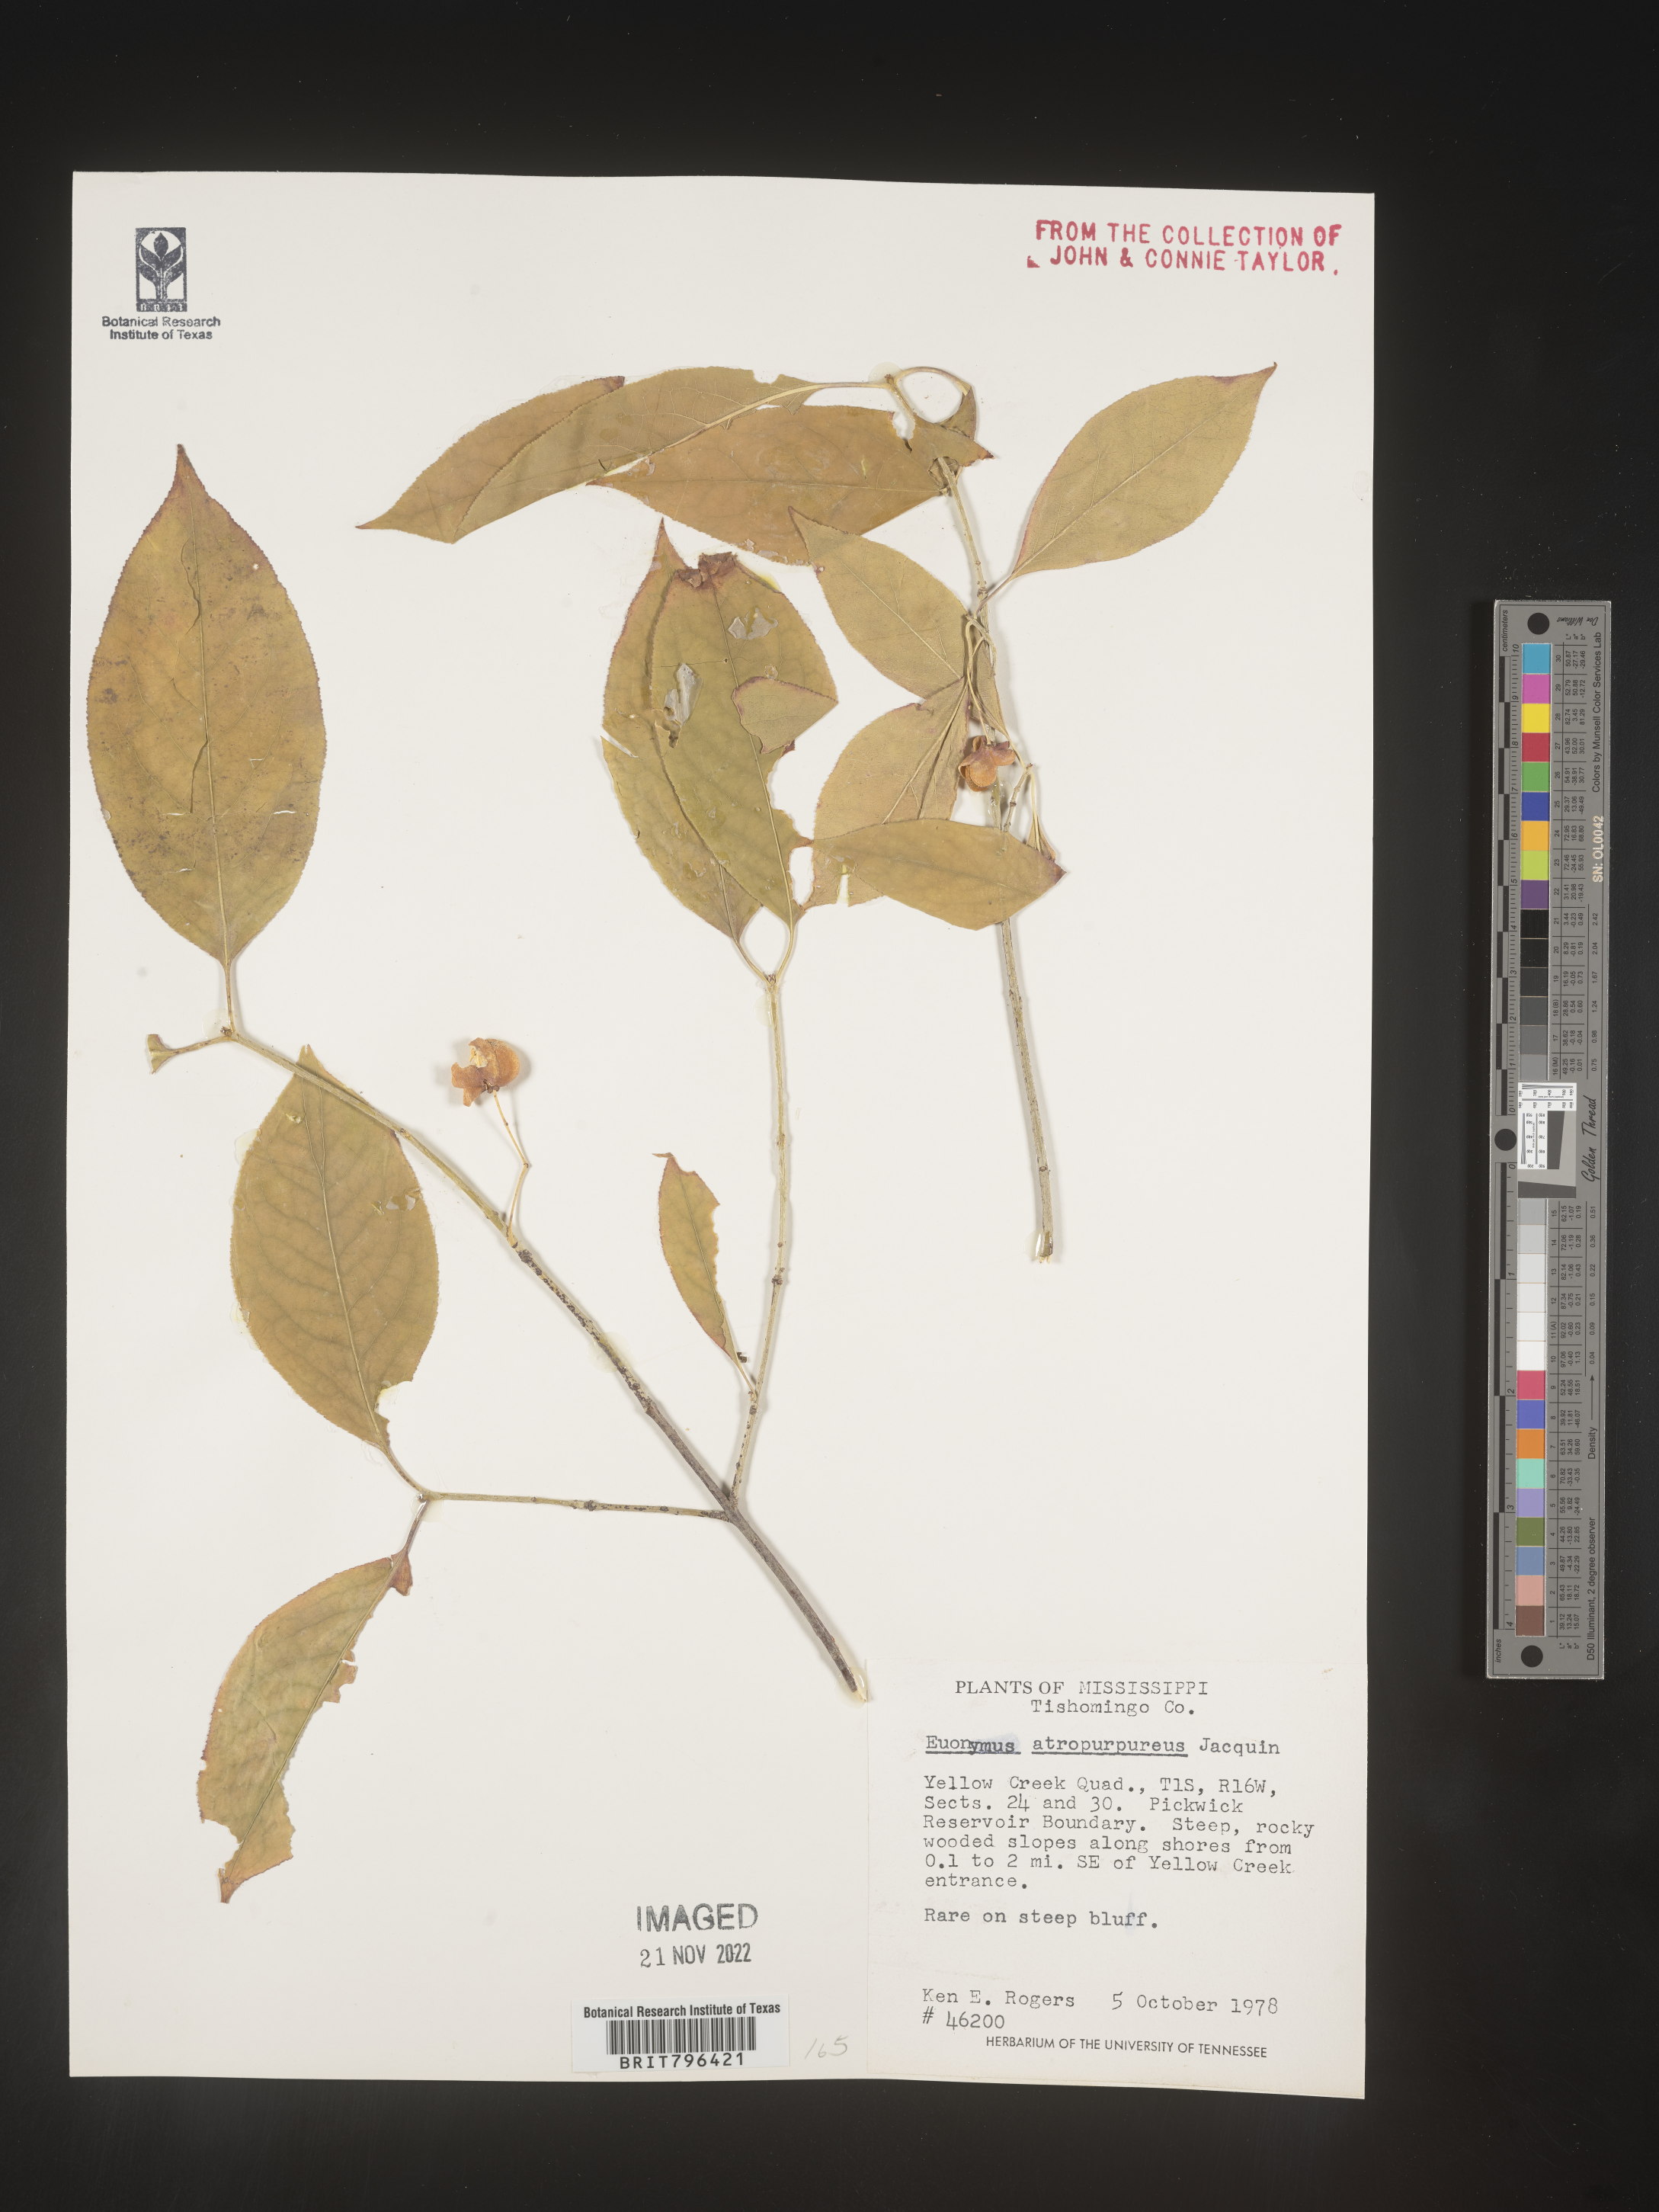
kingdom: Plantae
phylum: Tracheophyta
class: Magnoliopsida
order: Celastrales
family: Celastraceae
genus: Euonymus
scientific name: Euonymus atropurpureus
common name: Eastern wahoo
